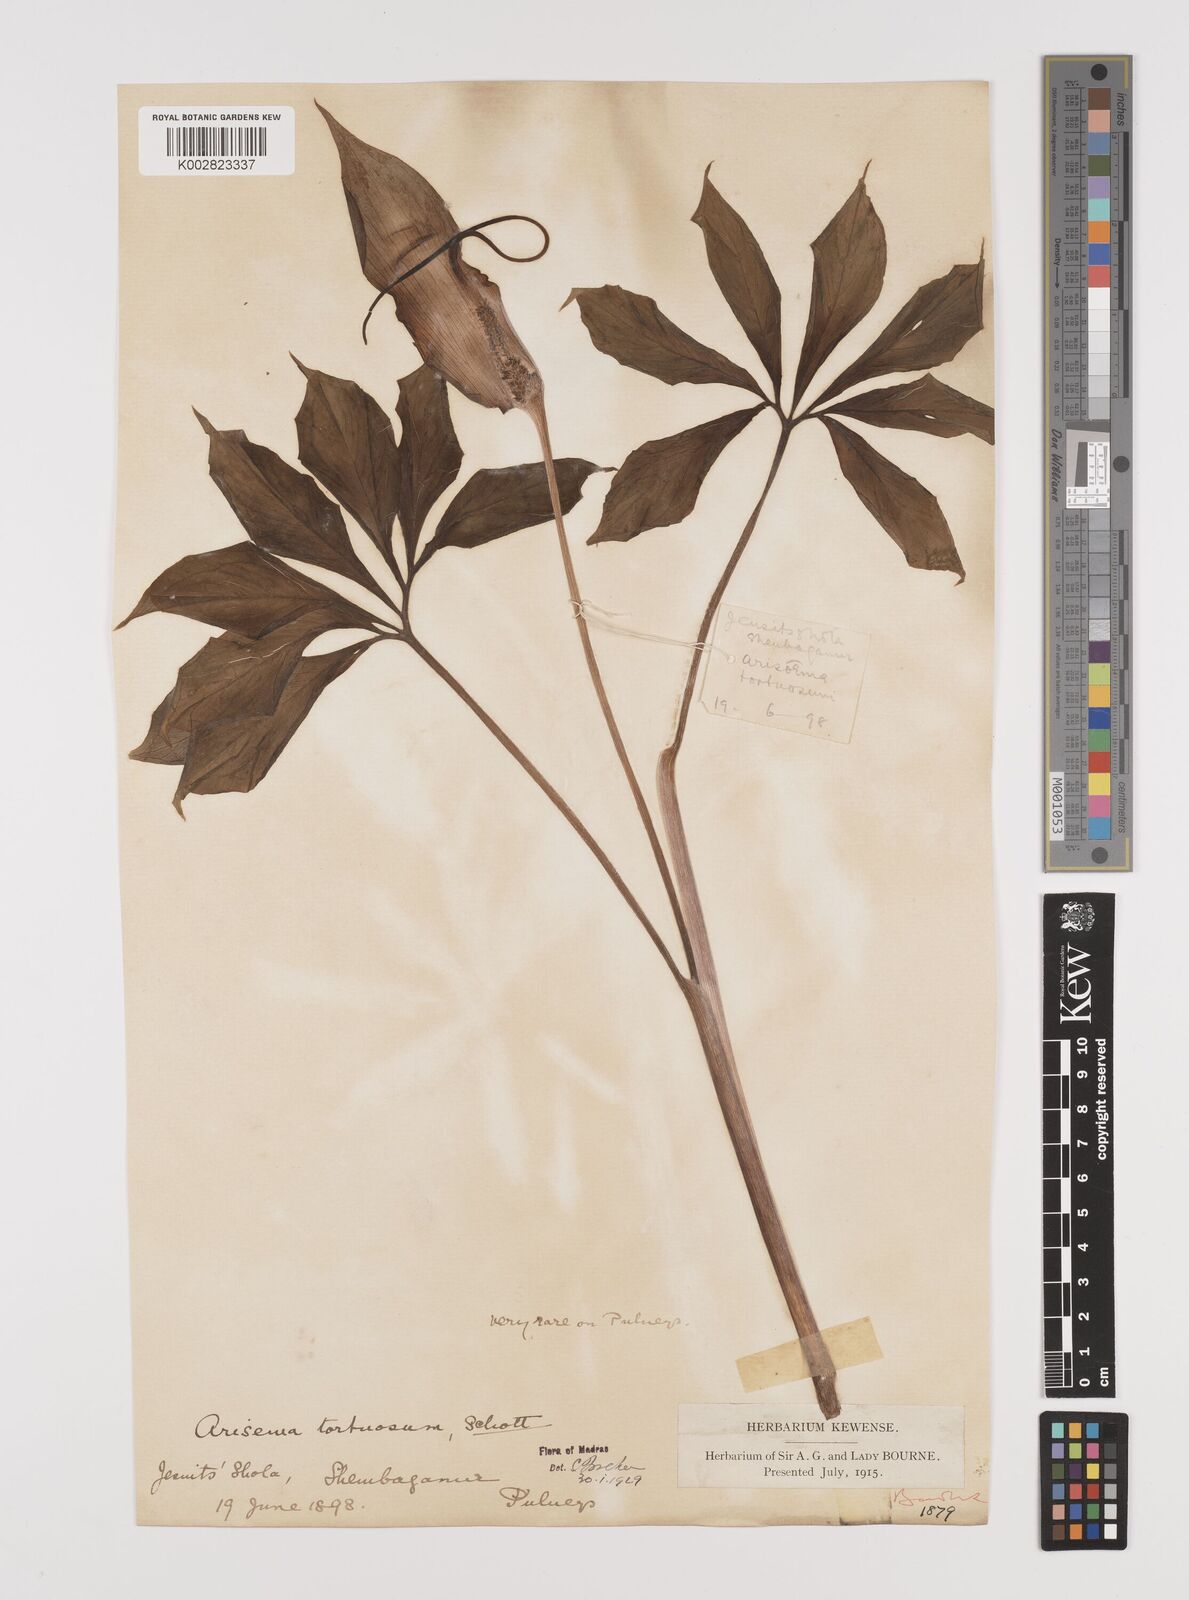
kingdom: Plantae
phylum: Tracheophyta
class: Liliopsida
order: Alismatales
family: Araceae
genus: Arisaema
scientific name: Arisaema tortuosum
